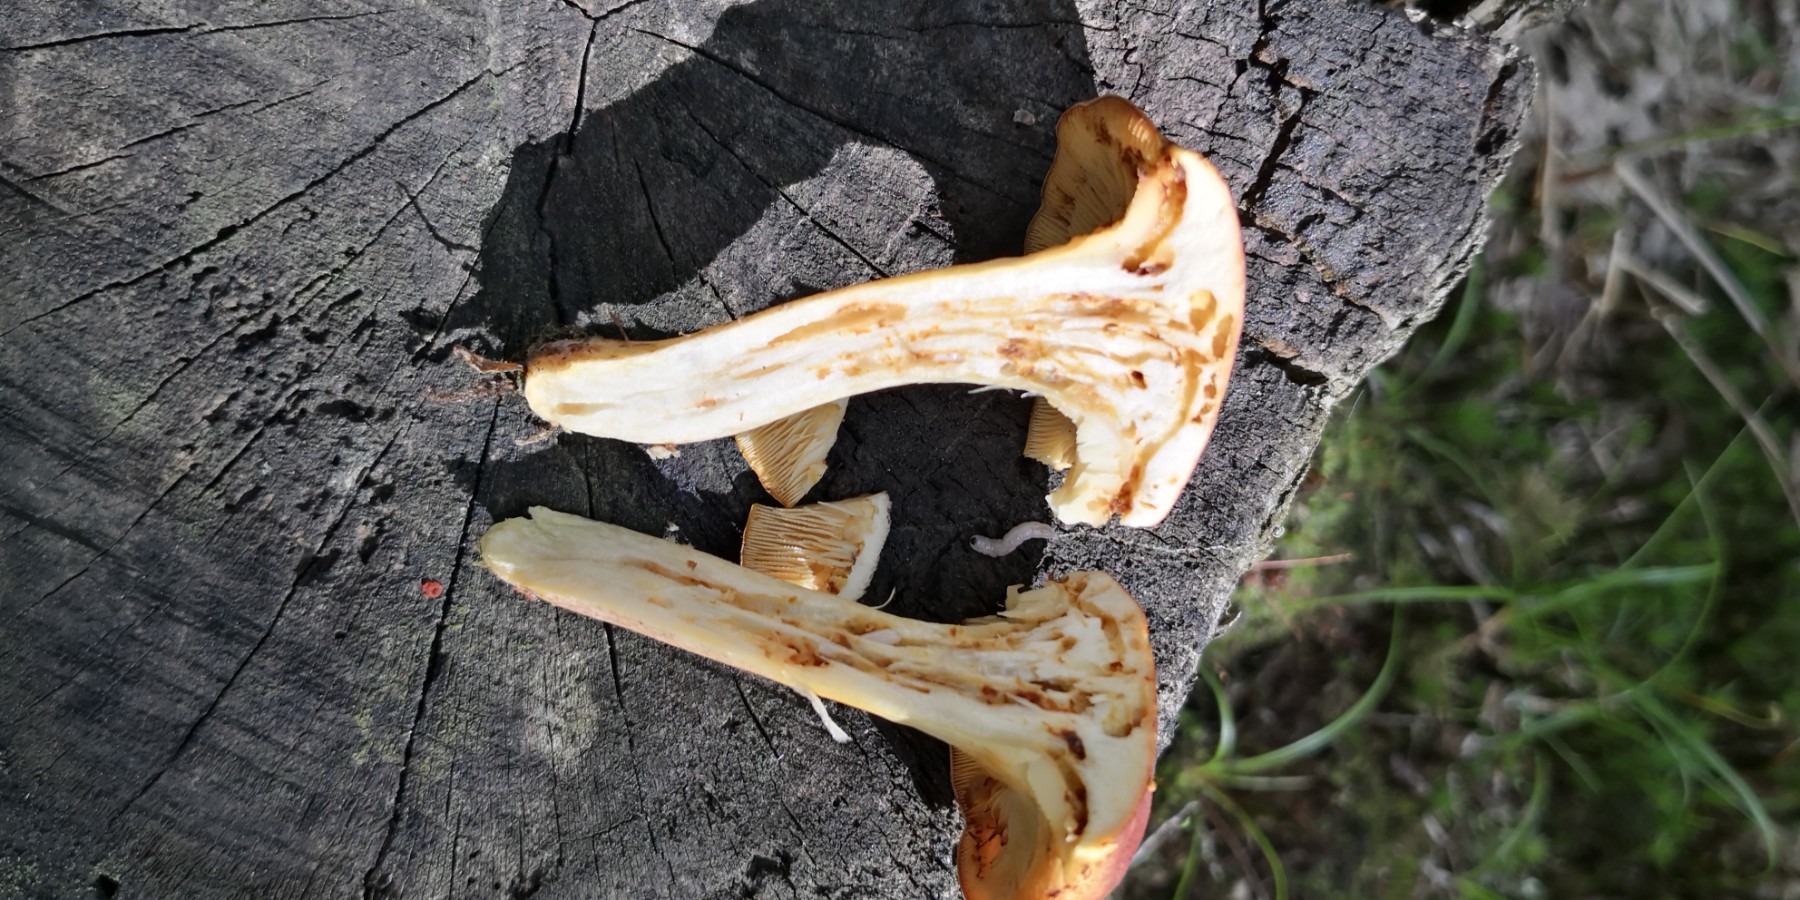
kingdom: Fungi
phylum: Basidiomycota
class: Agaricomycetes
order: Agaricales
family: Tricholomataceae
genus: Tricholomopsis
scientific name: Tricholomopsis rutilans
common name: purpur-væbnerhat
